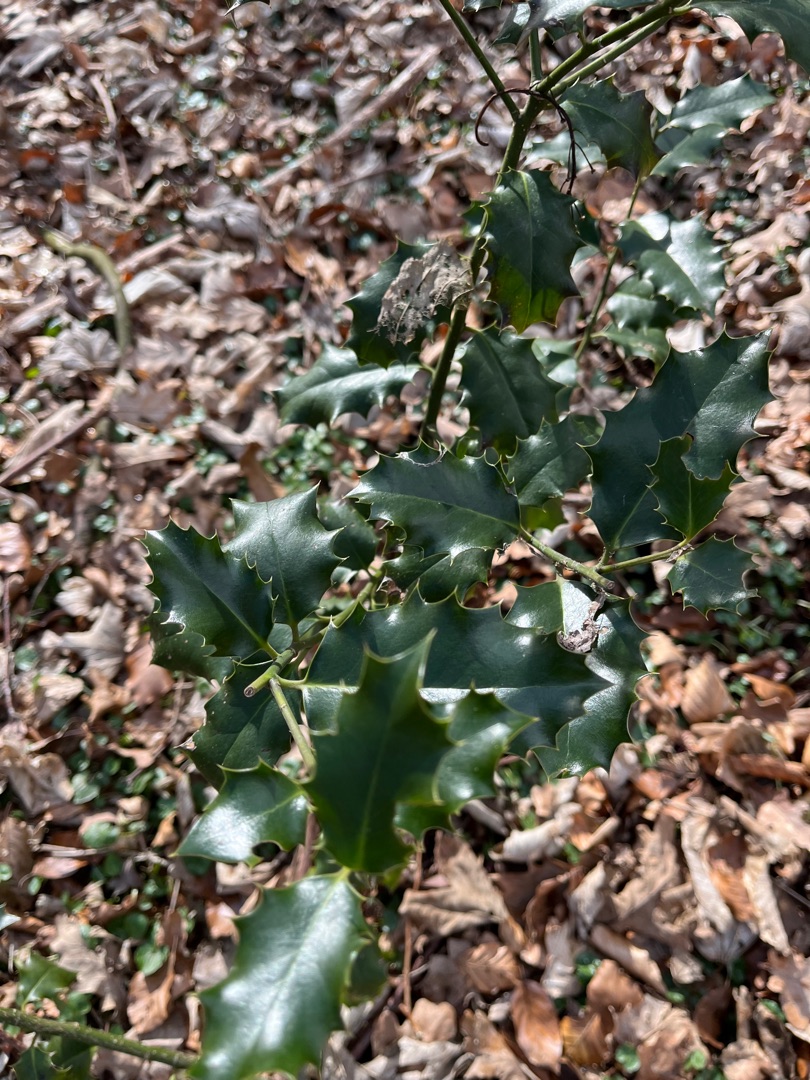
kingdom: Plantae
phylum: Tracheophyta
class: Magnoliopsida
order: Aquifoliales
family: Aquifoliaceae
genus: Ilex
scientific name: Ilex aquifolium
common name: Kristtorn
